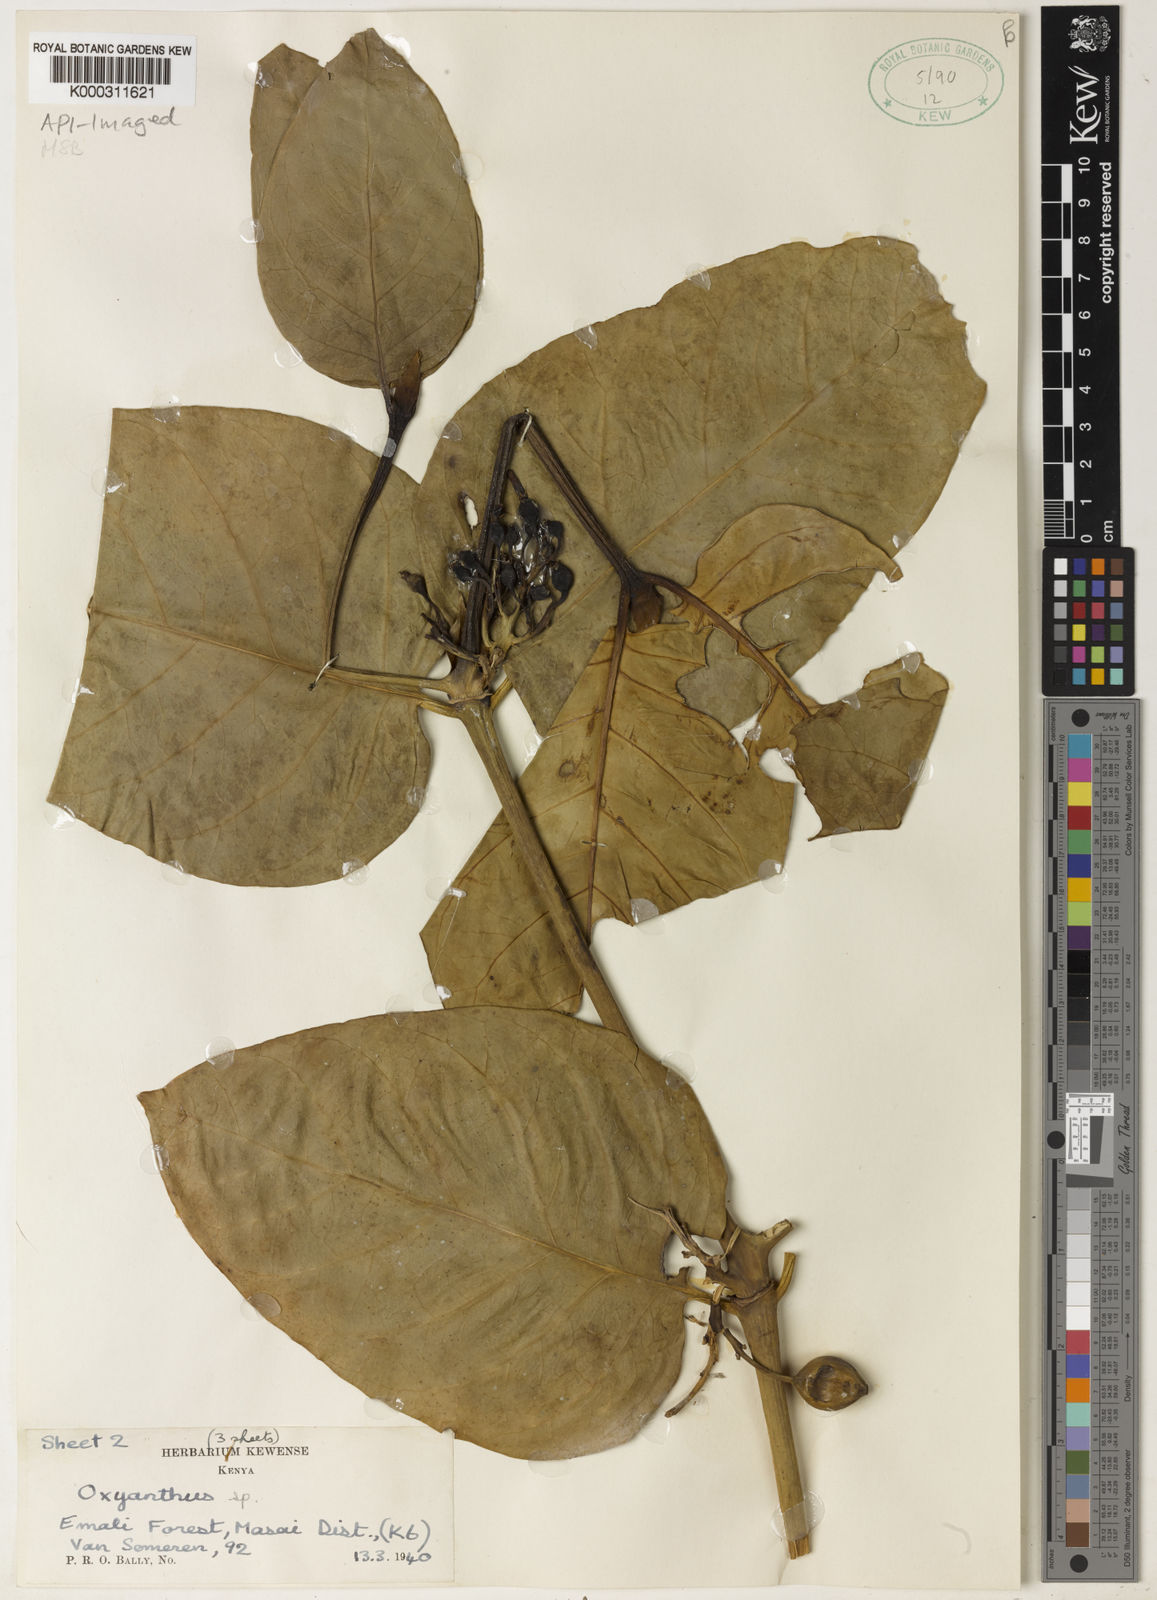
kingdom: Plantae
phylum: Tracheophyta
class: Magnoliopsida
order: Gentianales
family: Rubiaceae
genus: Oxyanthus
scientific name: Oxyanthus pyriformis
